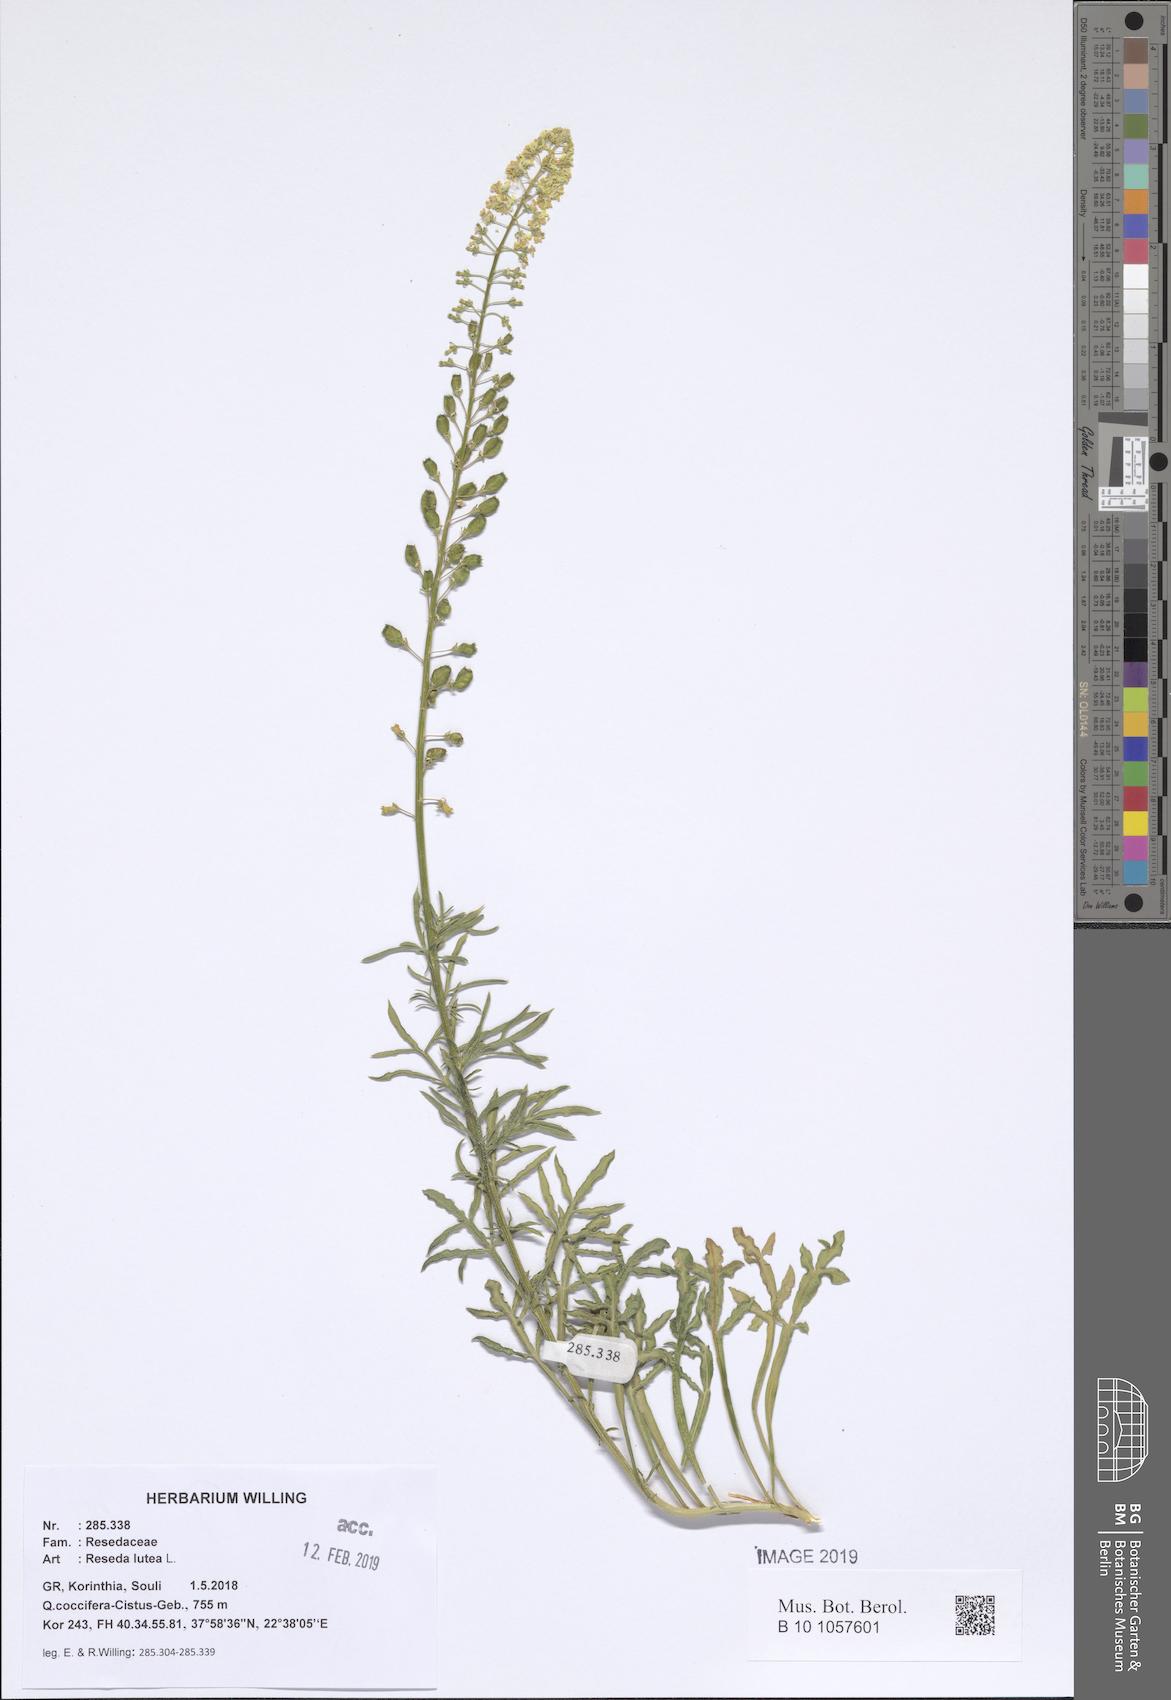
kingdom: Plantae
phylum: Tracheophyta
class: Magnoliopsida
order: Brassicales
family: Resedaceae
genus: Reseda
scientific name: Reseda lutea
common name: Wild mignonette
